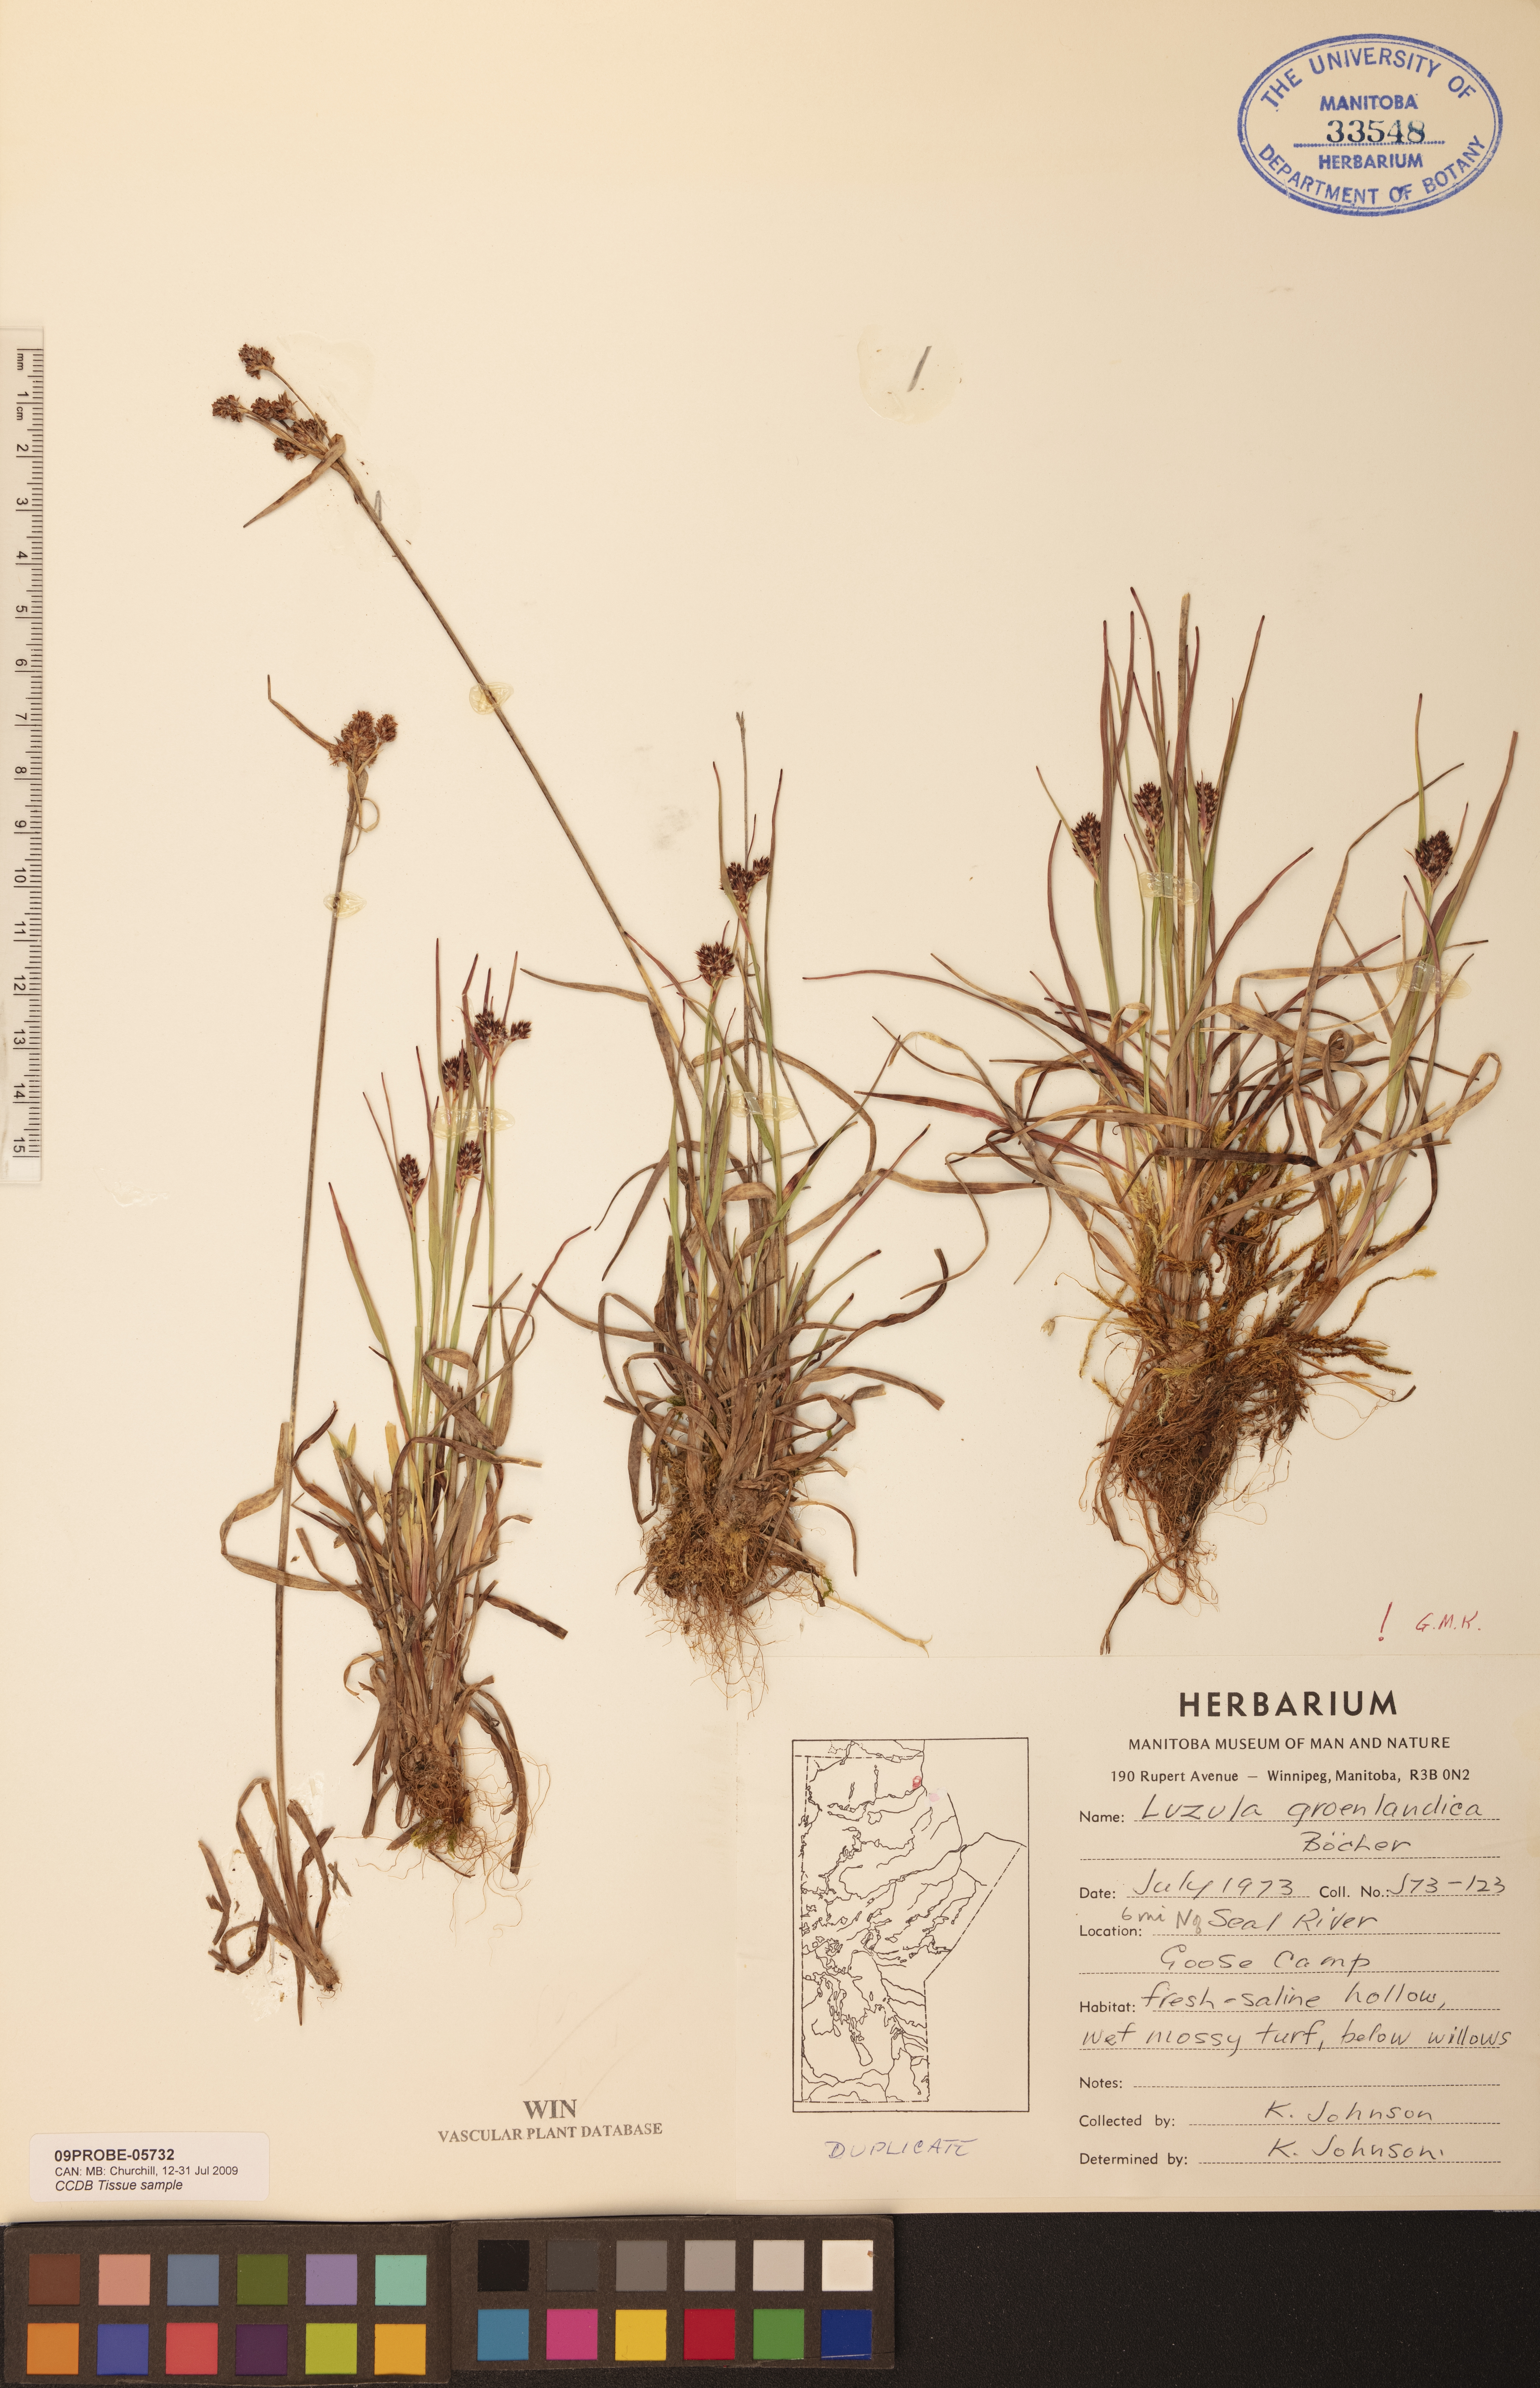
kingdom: Plantae
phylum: Tracheophyta
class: Liliopsida
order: Poales
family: Juncaceae
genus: Luzula
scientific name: Luzula groenlandica
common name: Greenland woodrush
